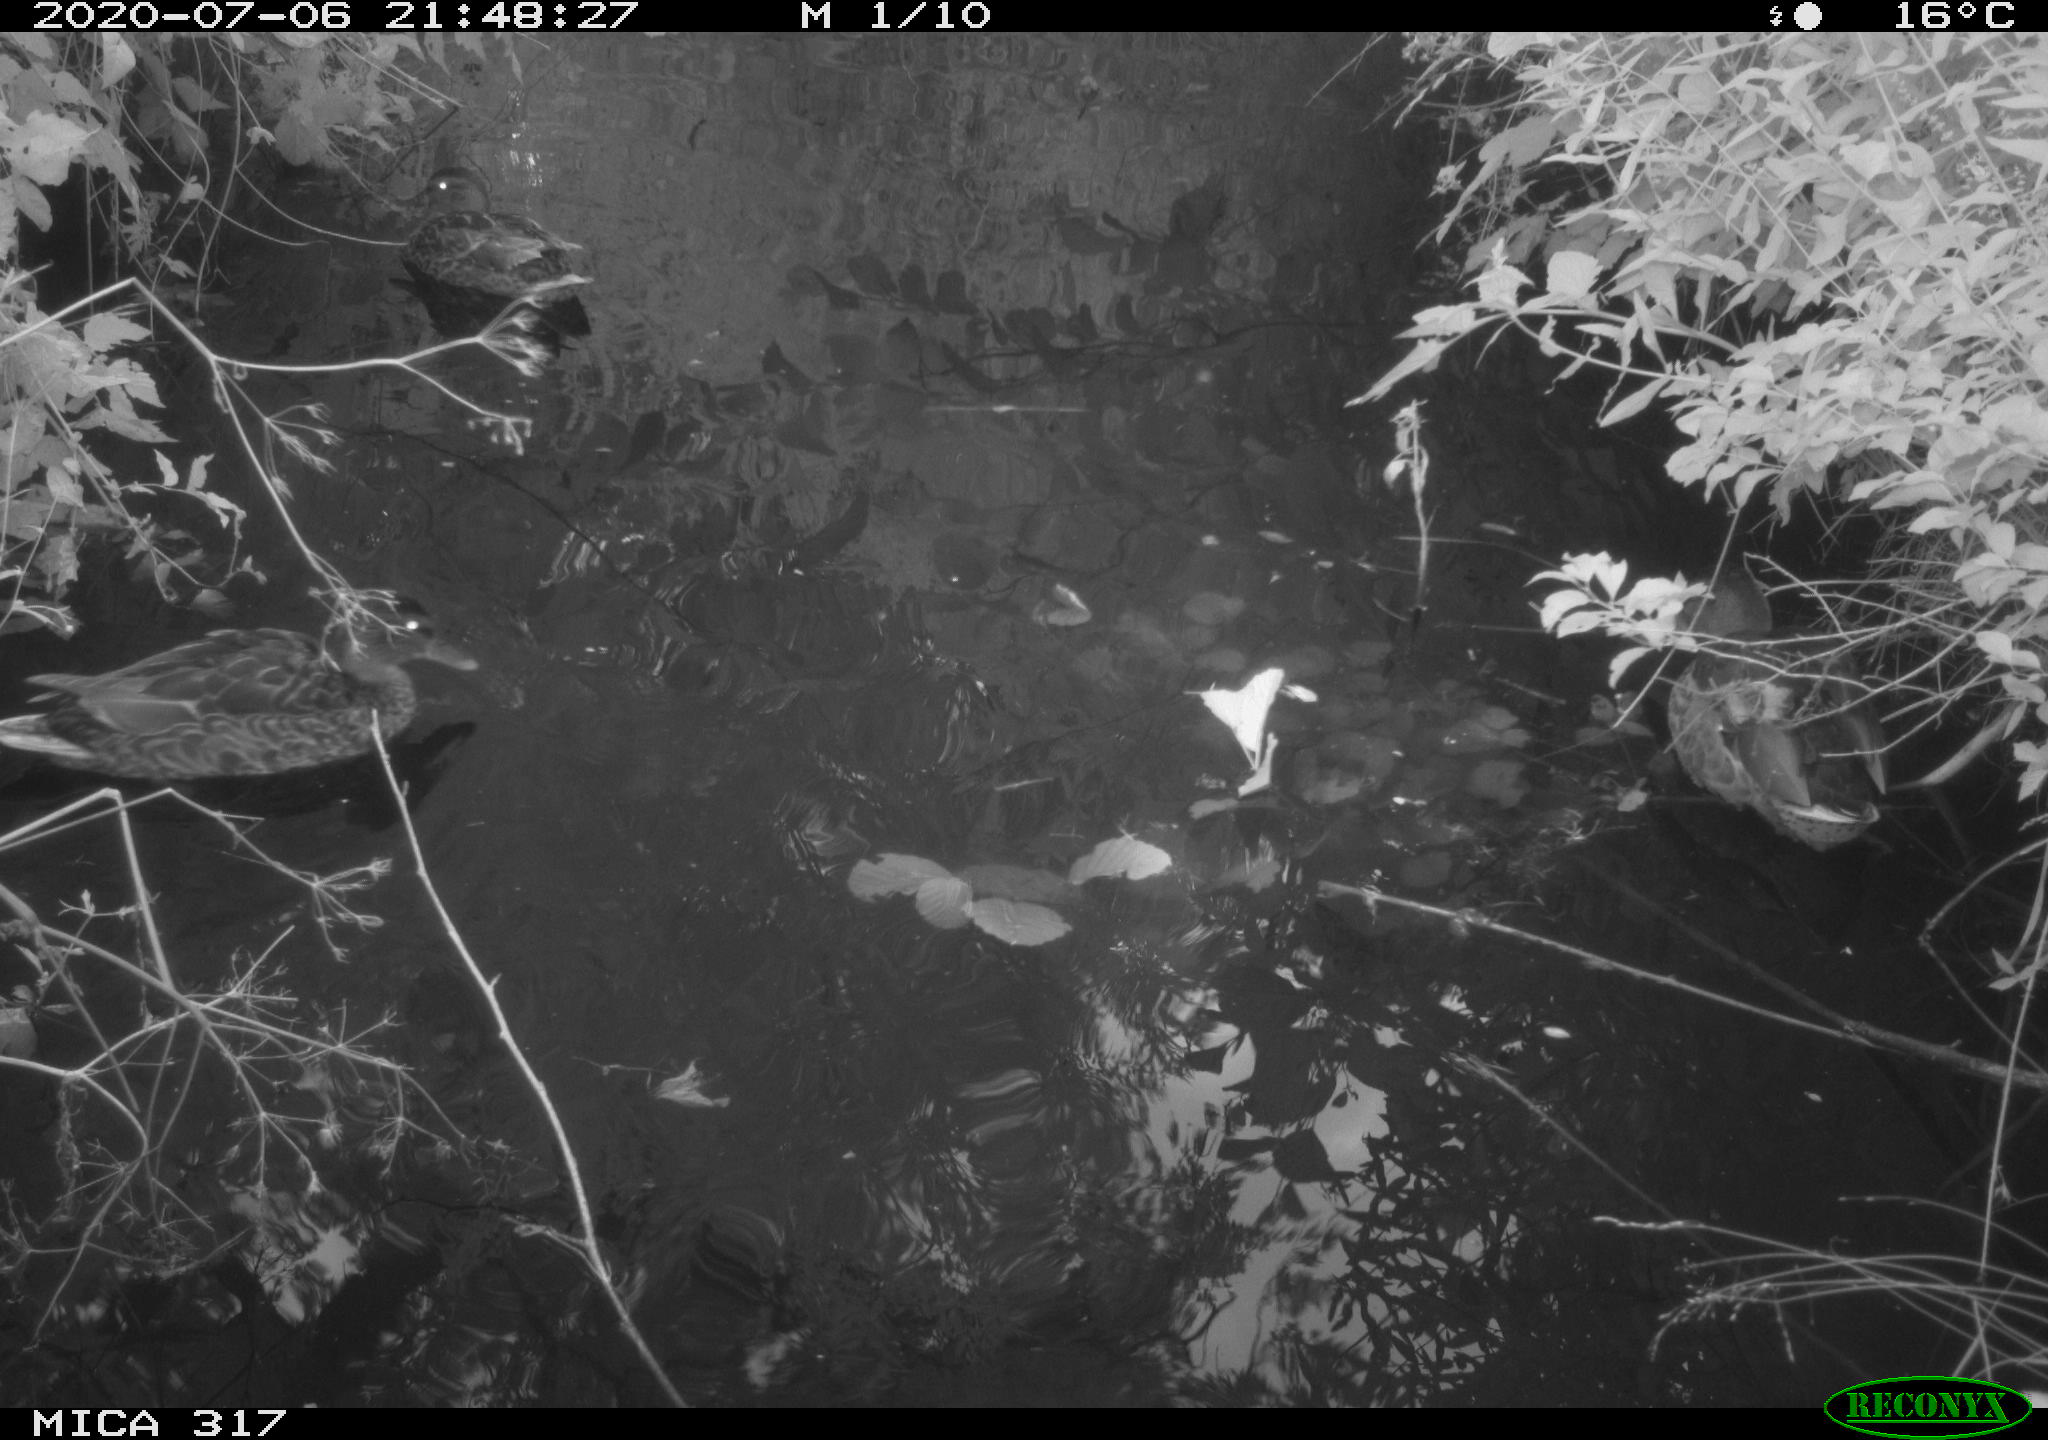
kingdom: Animalia
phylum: Chordata
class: Aves
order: Anseriformes
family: Anatidae
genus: Anas
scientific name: Anas platyrhynchos
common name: Mallard
